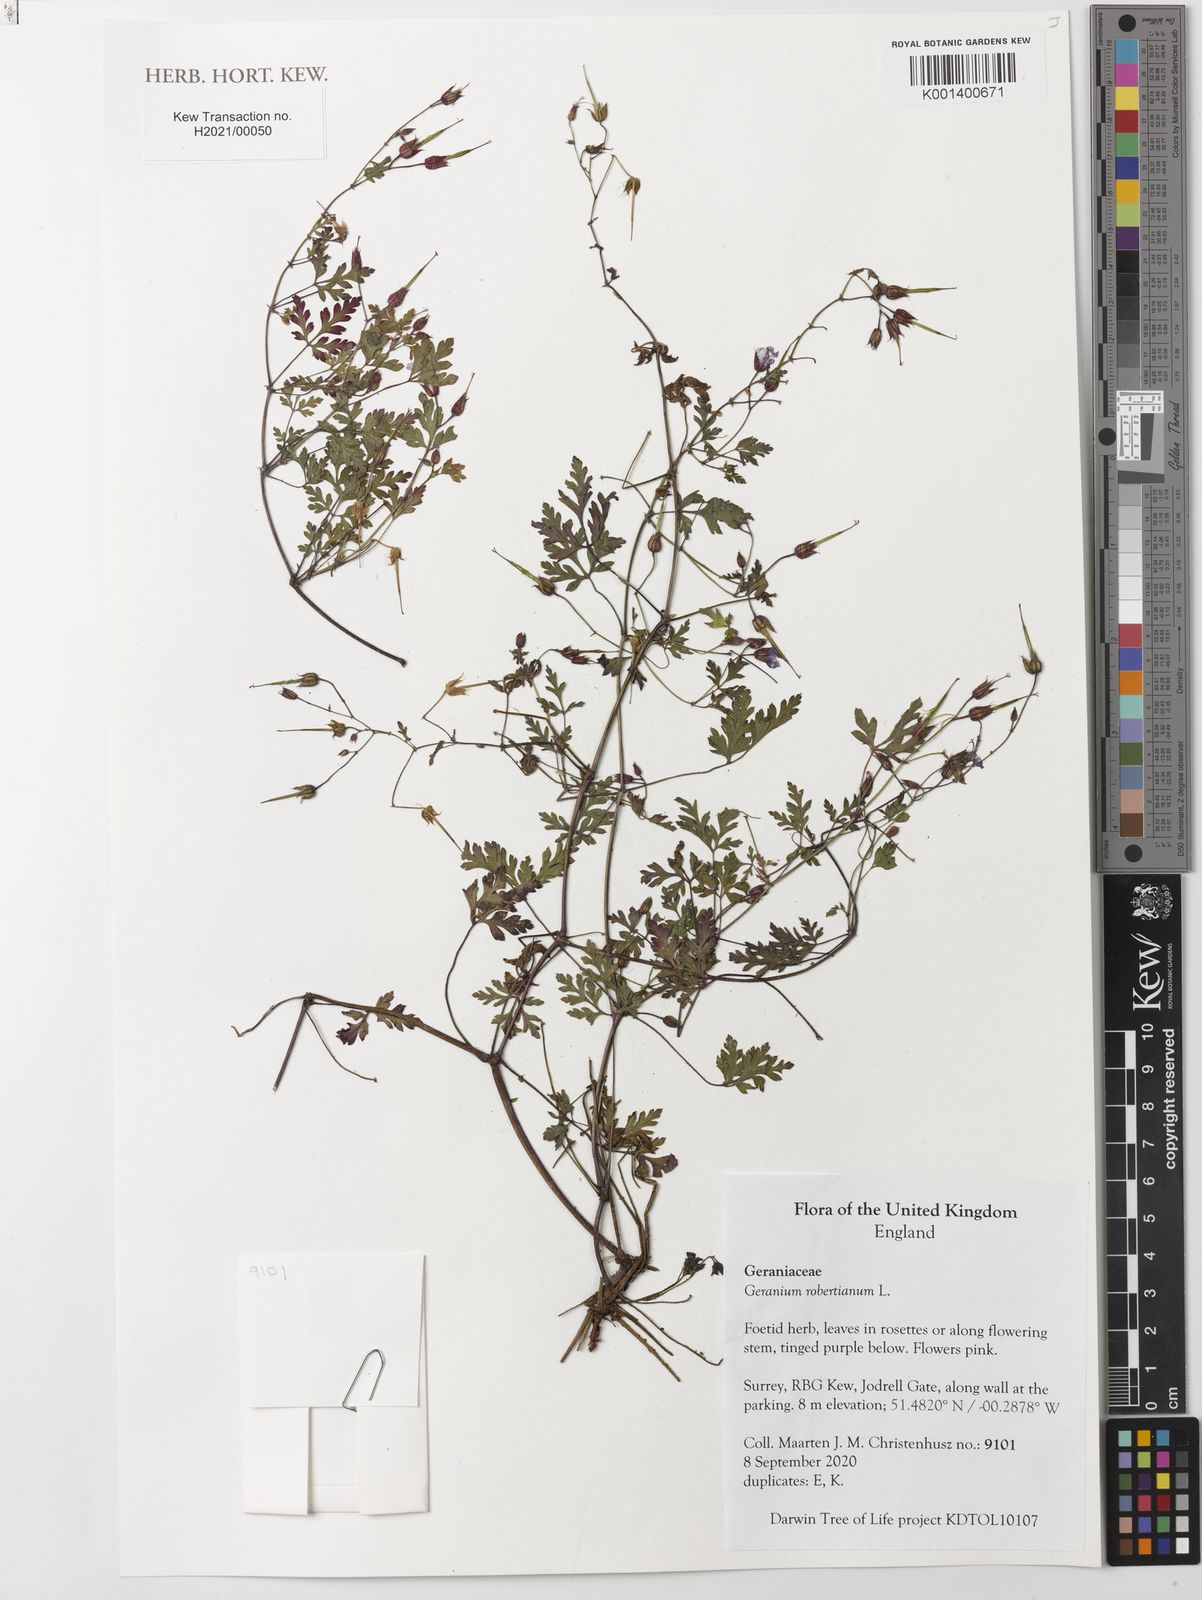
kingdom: Plantae
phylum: Tracheophyta
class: Magnoliopsida
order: Geraniales
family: Geraniaceae
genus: Geranium
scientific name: Geranium robertianum
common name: Herb-robert
